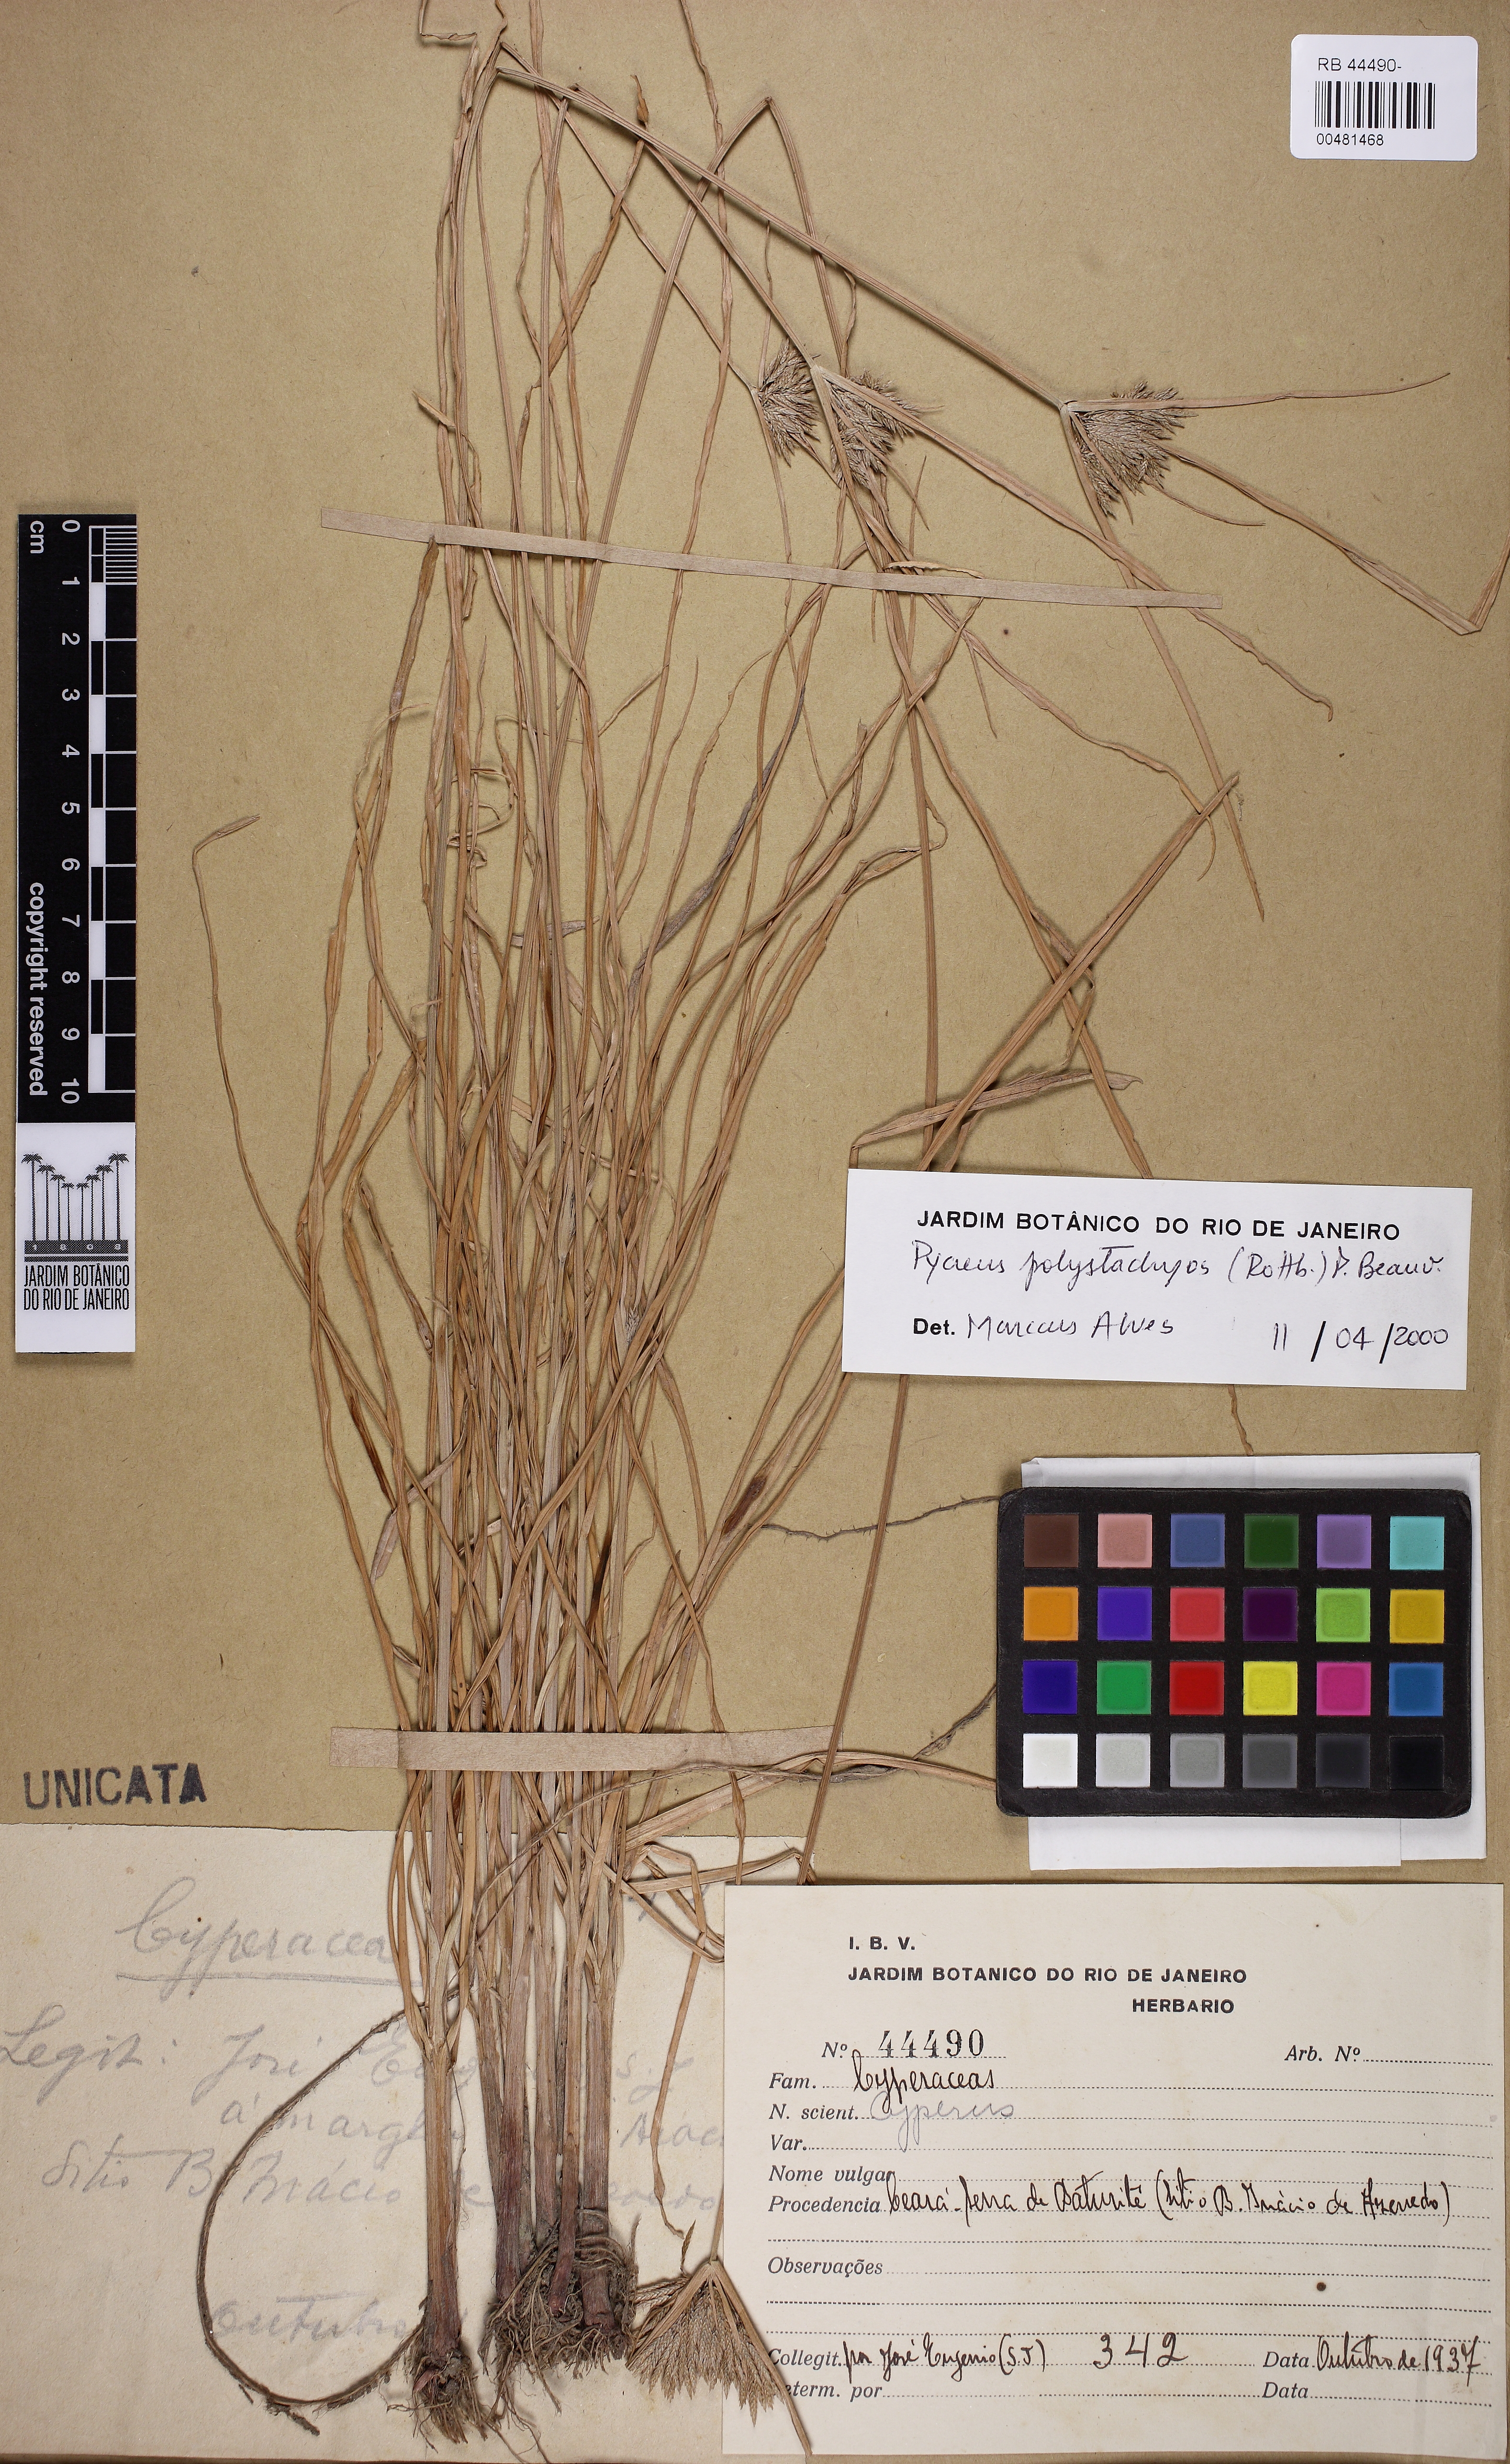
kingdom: Plantae
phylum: Tracheophyta
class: Liliopsida
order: Poales
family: Cyperaceae
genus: Cyperus
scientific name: Cyperus polystachyos
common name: Bunchy flat sedge
